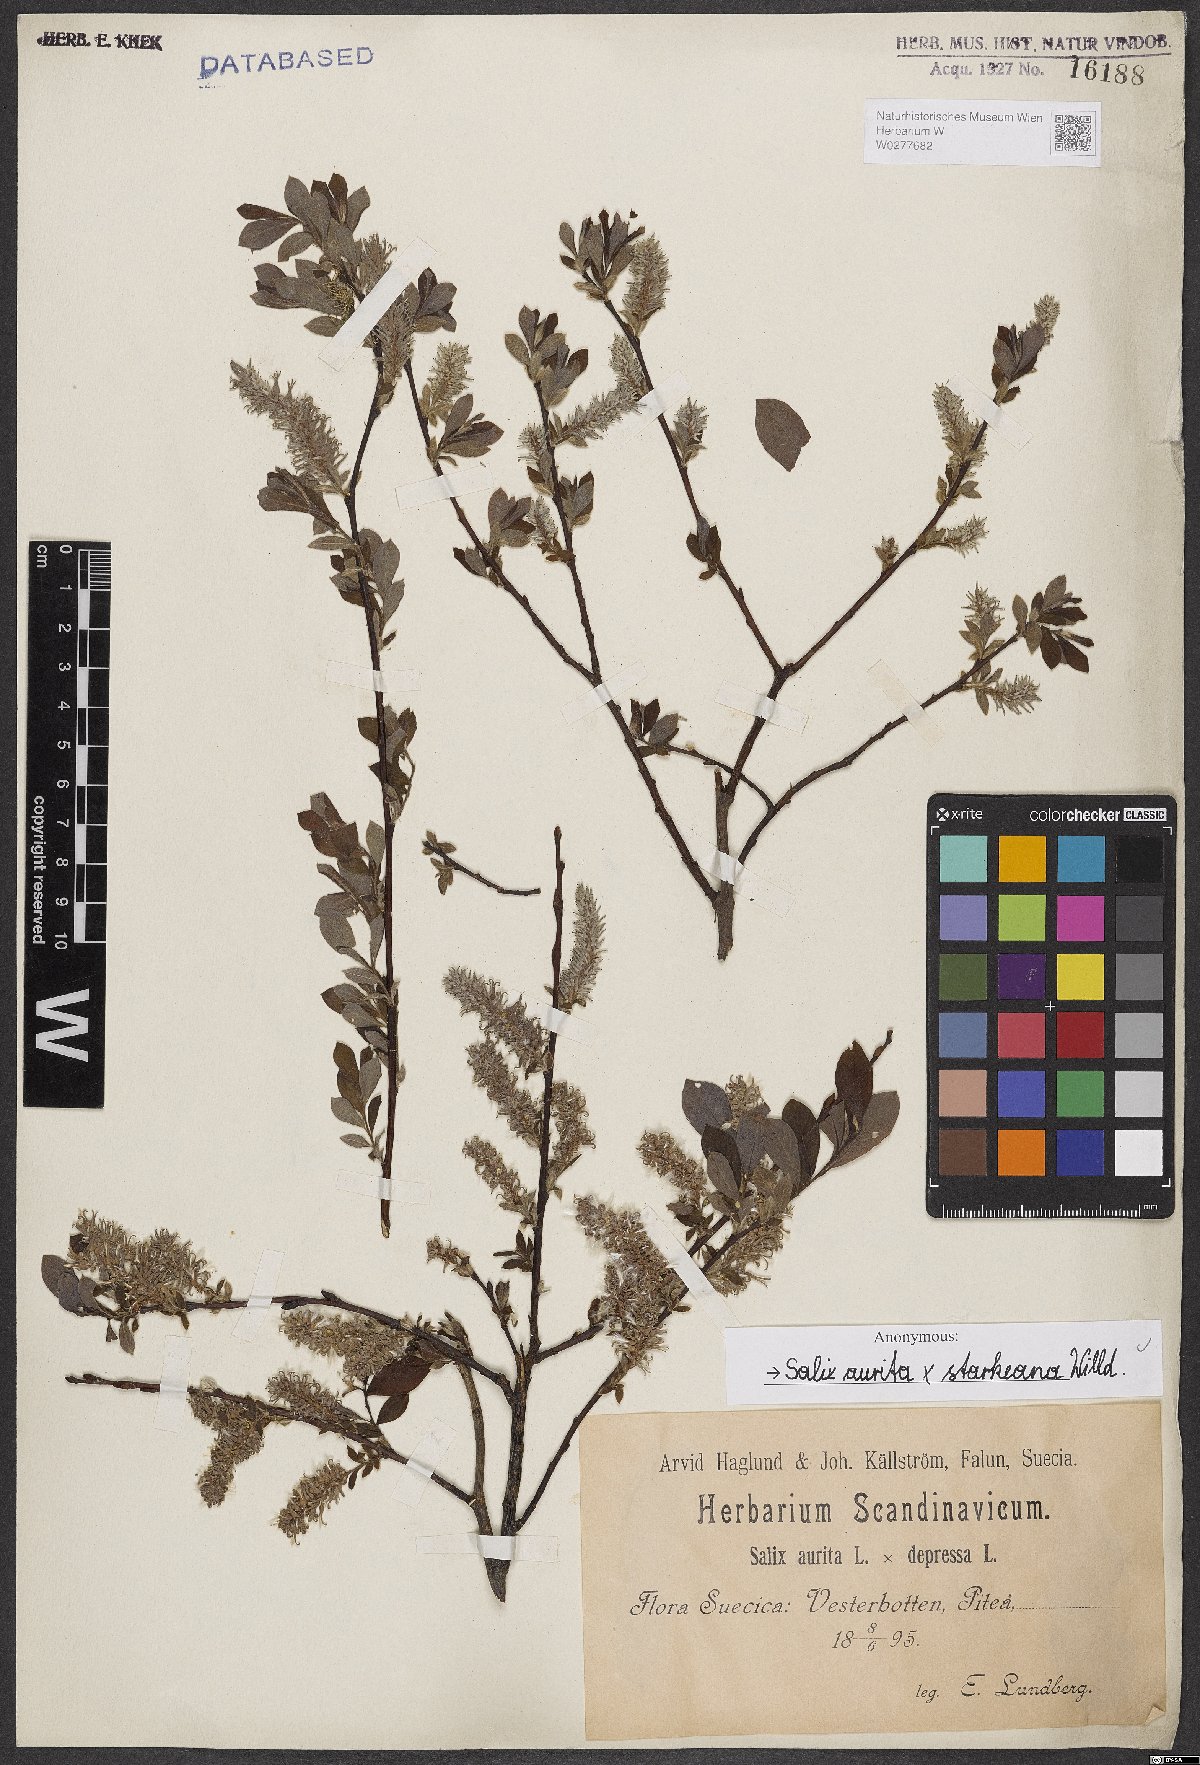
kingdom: Plantae
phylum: Tracheophyta
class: Magnoliopsida
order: Malpighiales
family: Salicaceae
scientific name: Salicaceae
